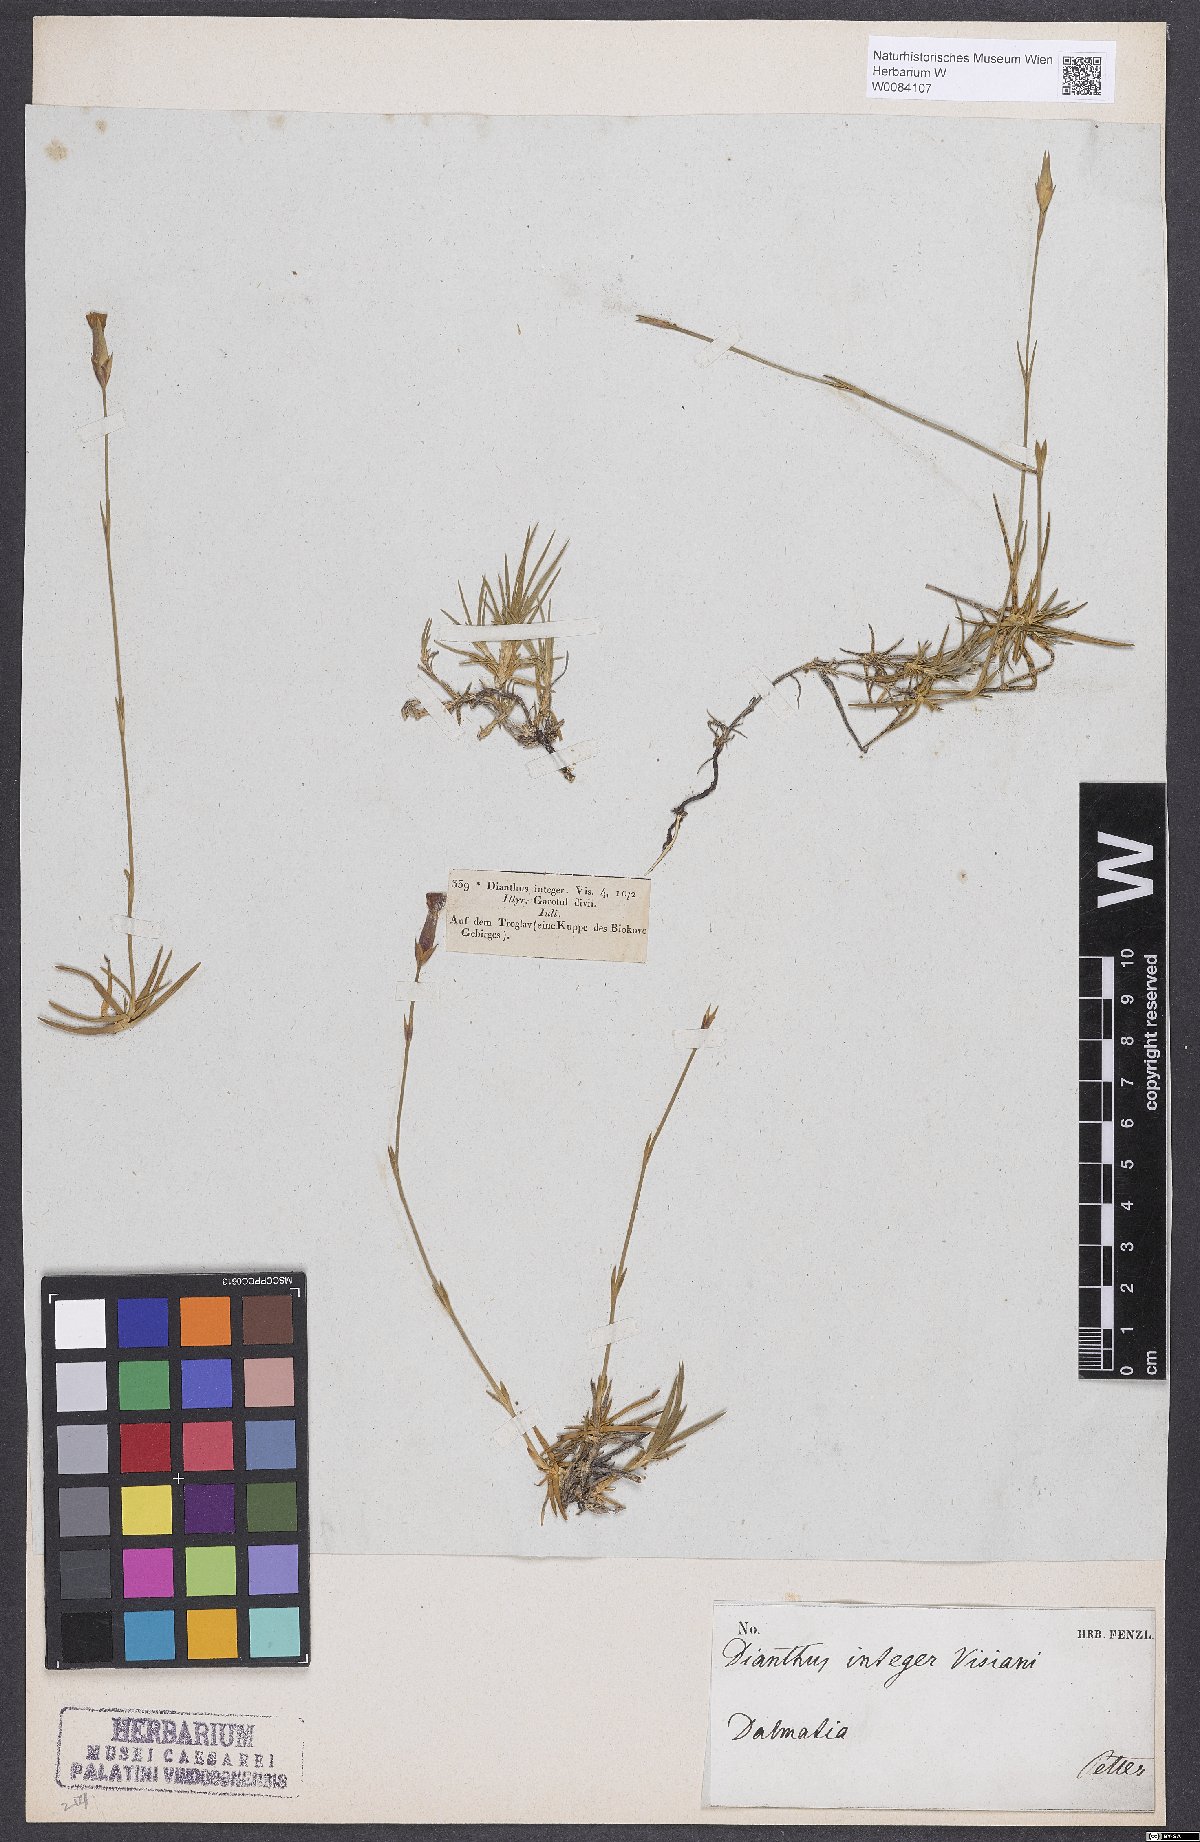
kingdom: Plantae
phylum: Tracheophyta
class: Magnoliopsida
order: Caryophyllales
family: Caryophyllaceae
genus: Dianthus
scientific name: Dianthus integer
